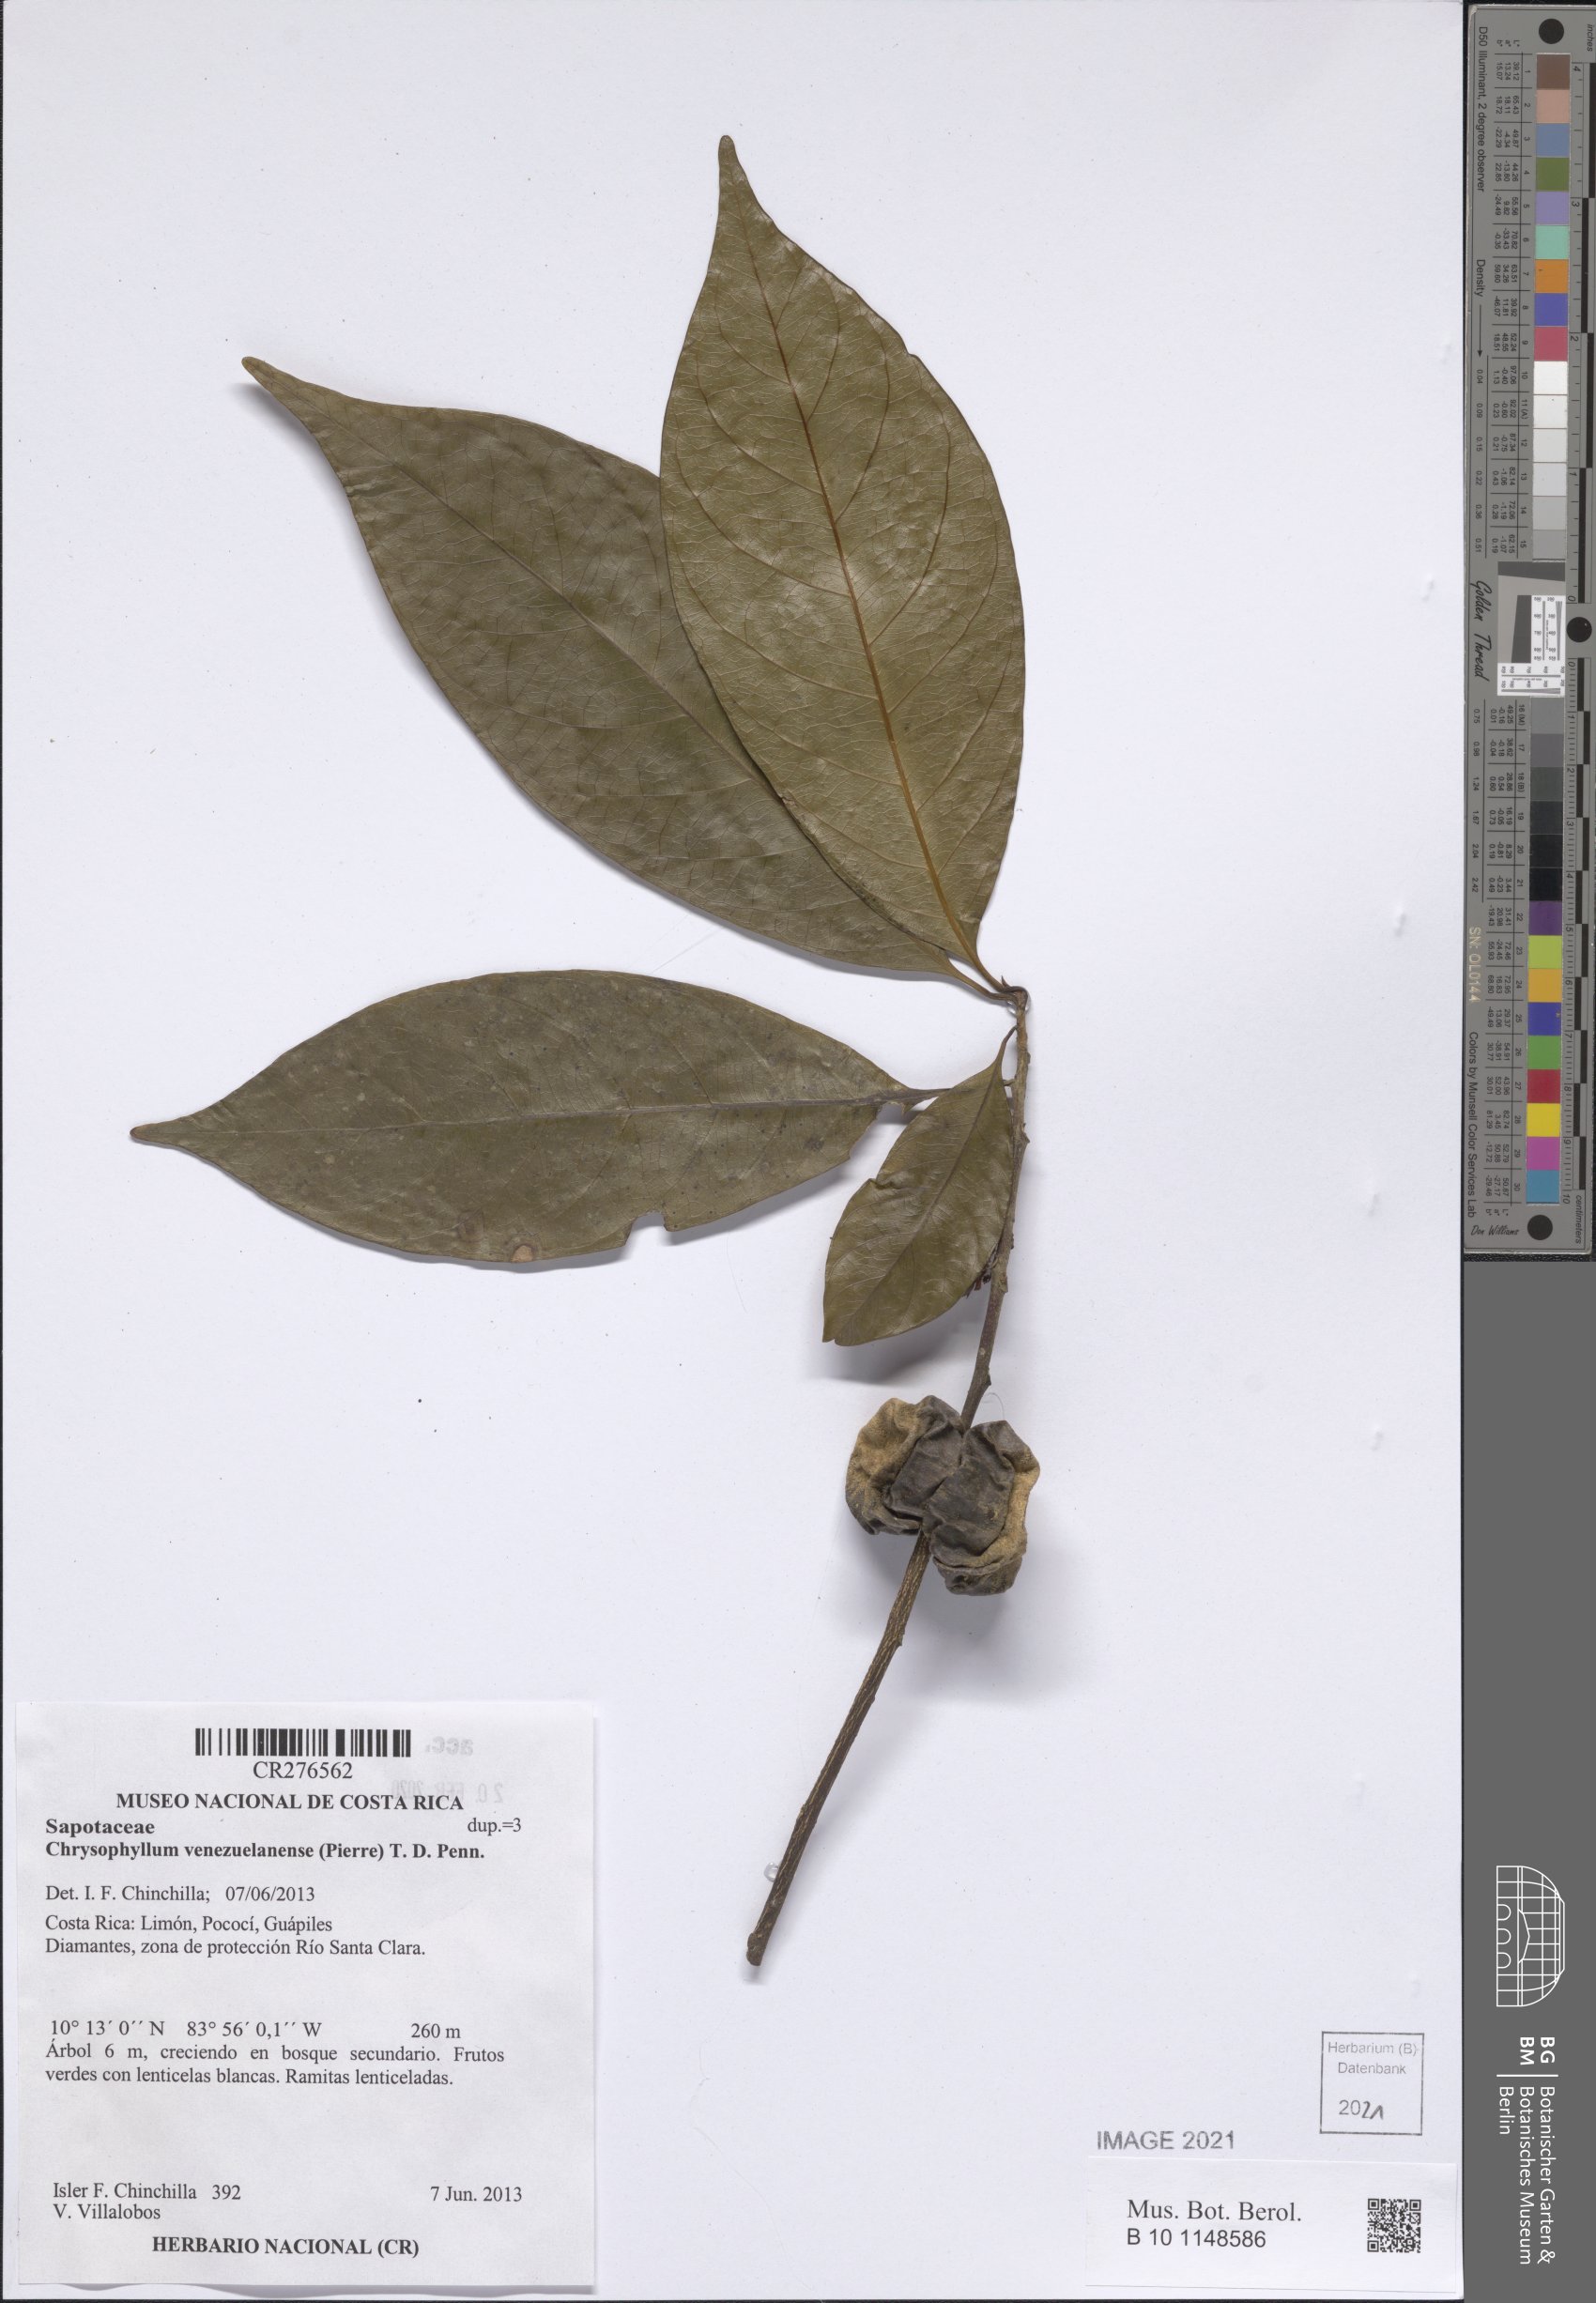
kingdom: Plantae
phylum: Tracheophyta
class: Magnoliopsida
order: Ericales
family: Sapotaceae
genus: Chrysophyllum
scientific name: Chrysophyllum venezuelanense
